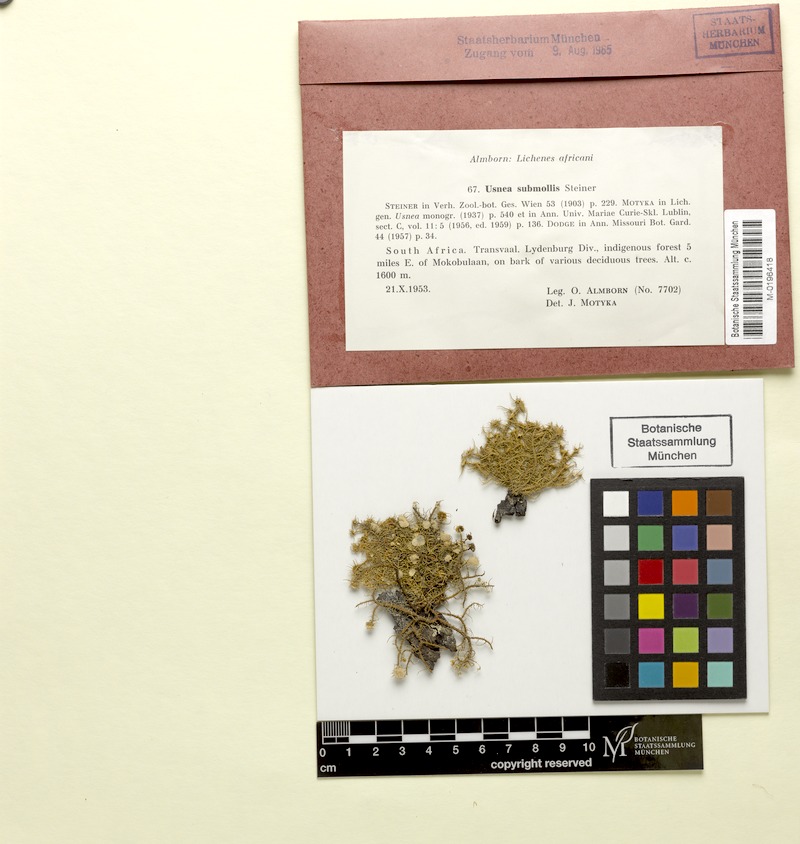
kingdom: Fungi
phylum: Ascomycota
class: Lecanoromycetes
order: Lecanorales
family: Parmeliaceae
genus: Usnea
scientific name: Usnea submollis
